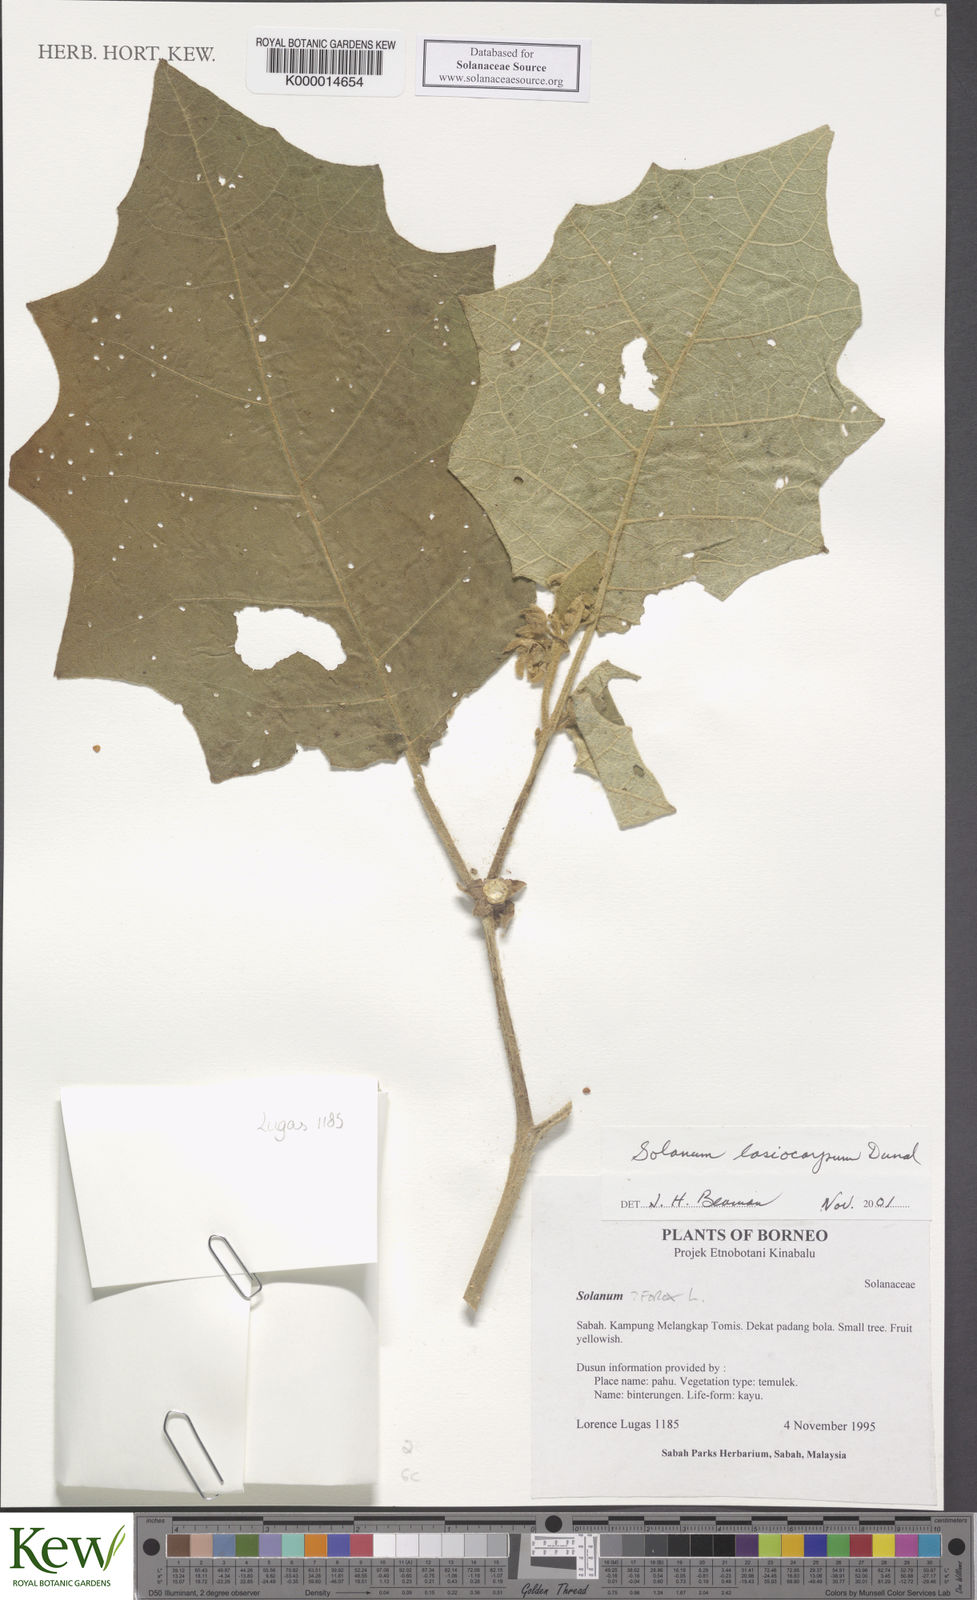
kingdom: Plantae
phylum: Tracheophyta
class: Magnoliopsida
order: Solanales
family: Solanaceae
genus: Solanum
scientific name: Solanum lasiocarpum
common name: Indian nightshade
